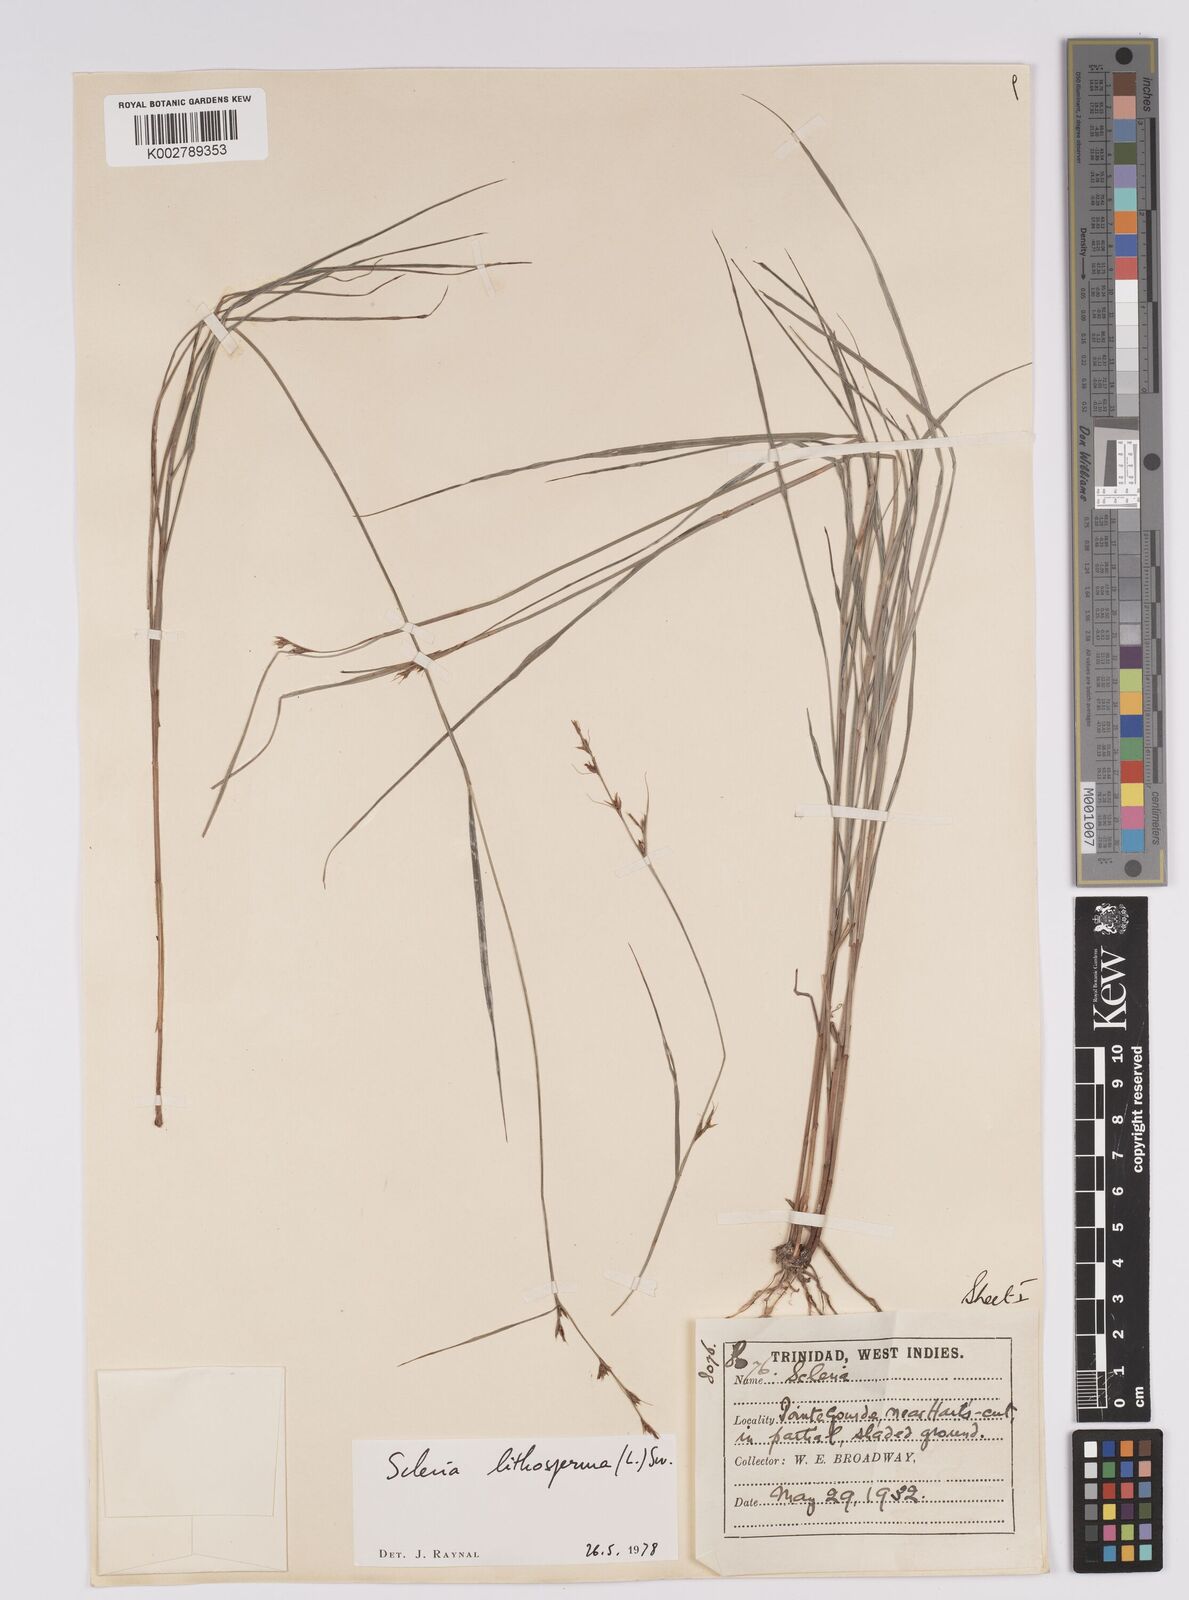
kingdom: Plantae
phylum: Tracheophyta
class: Liliopsida
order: Poales
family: Cyperaceae
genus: Scleria
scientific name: Scleria lithosperma
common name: Florida keys nut-rush
